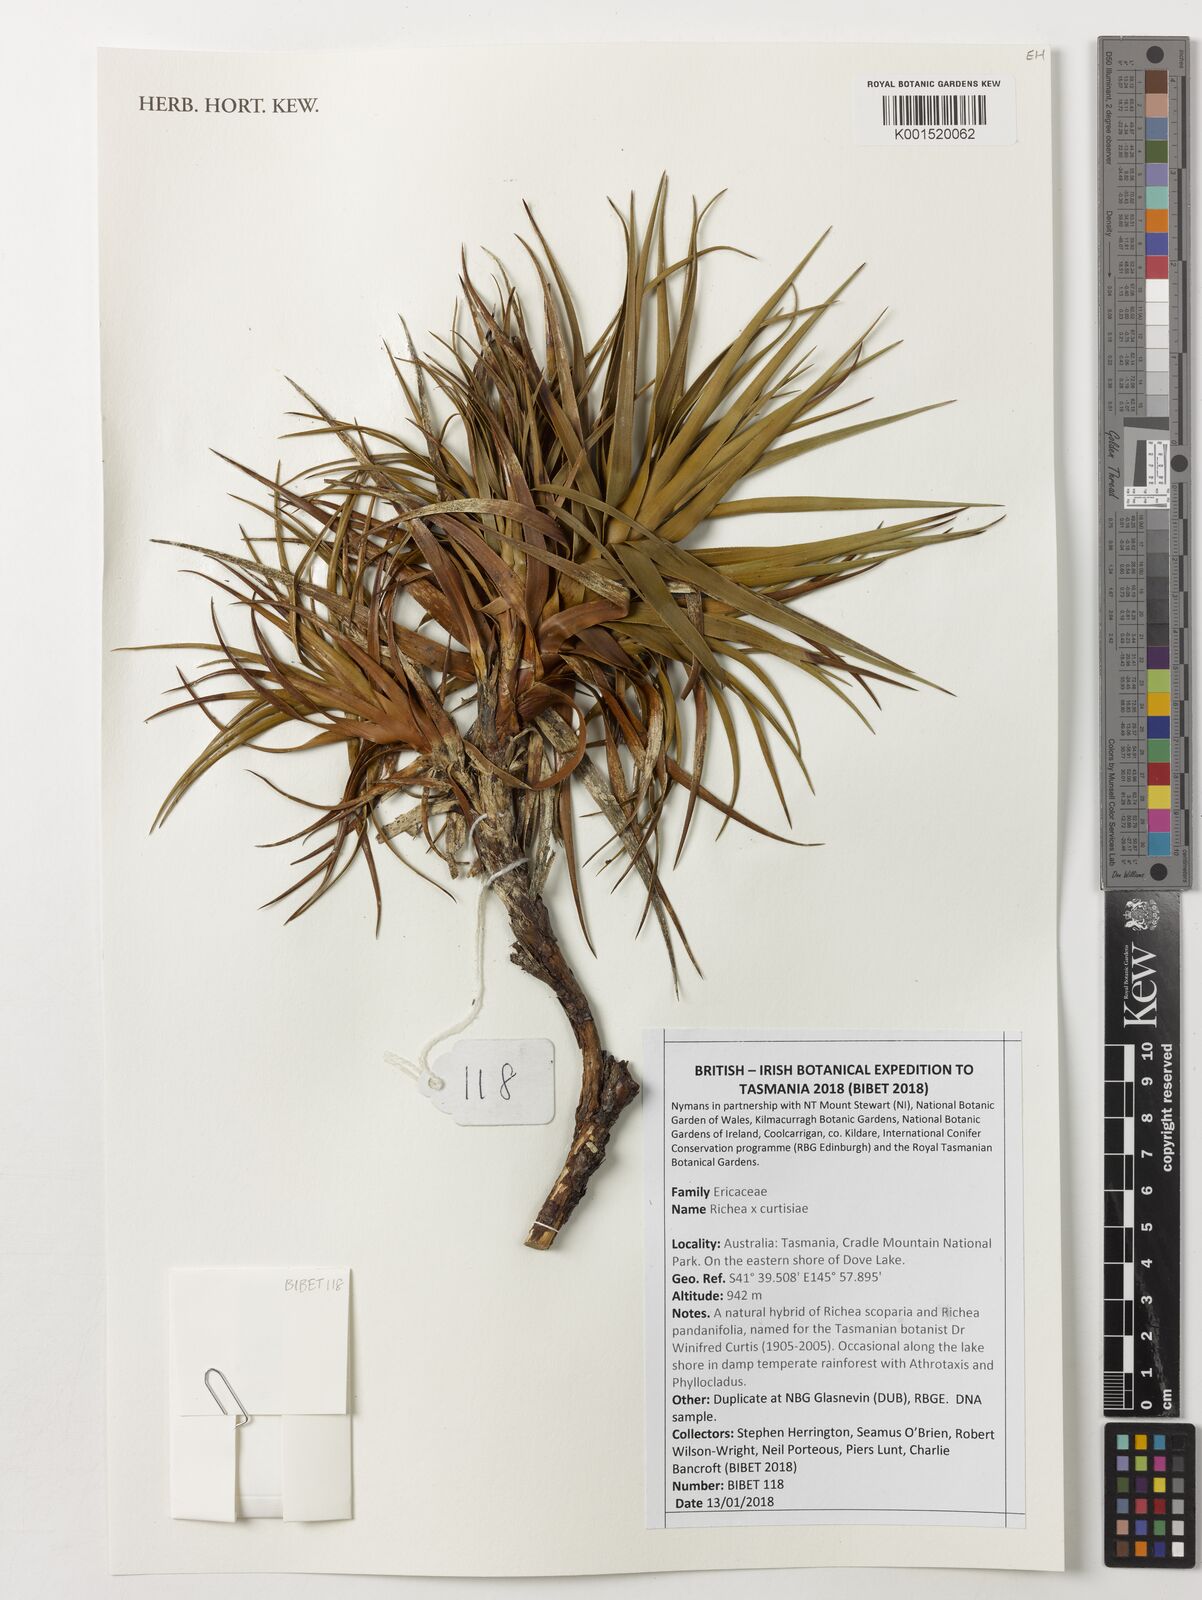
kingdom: Plantae
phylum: Tracheophyta
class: Magnoliopsida
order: Ericales
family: Ericaceae
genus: Richea
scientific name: Richea curtisiae
